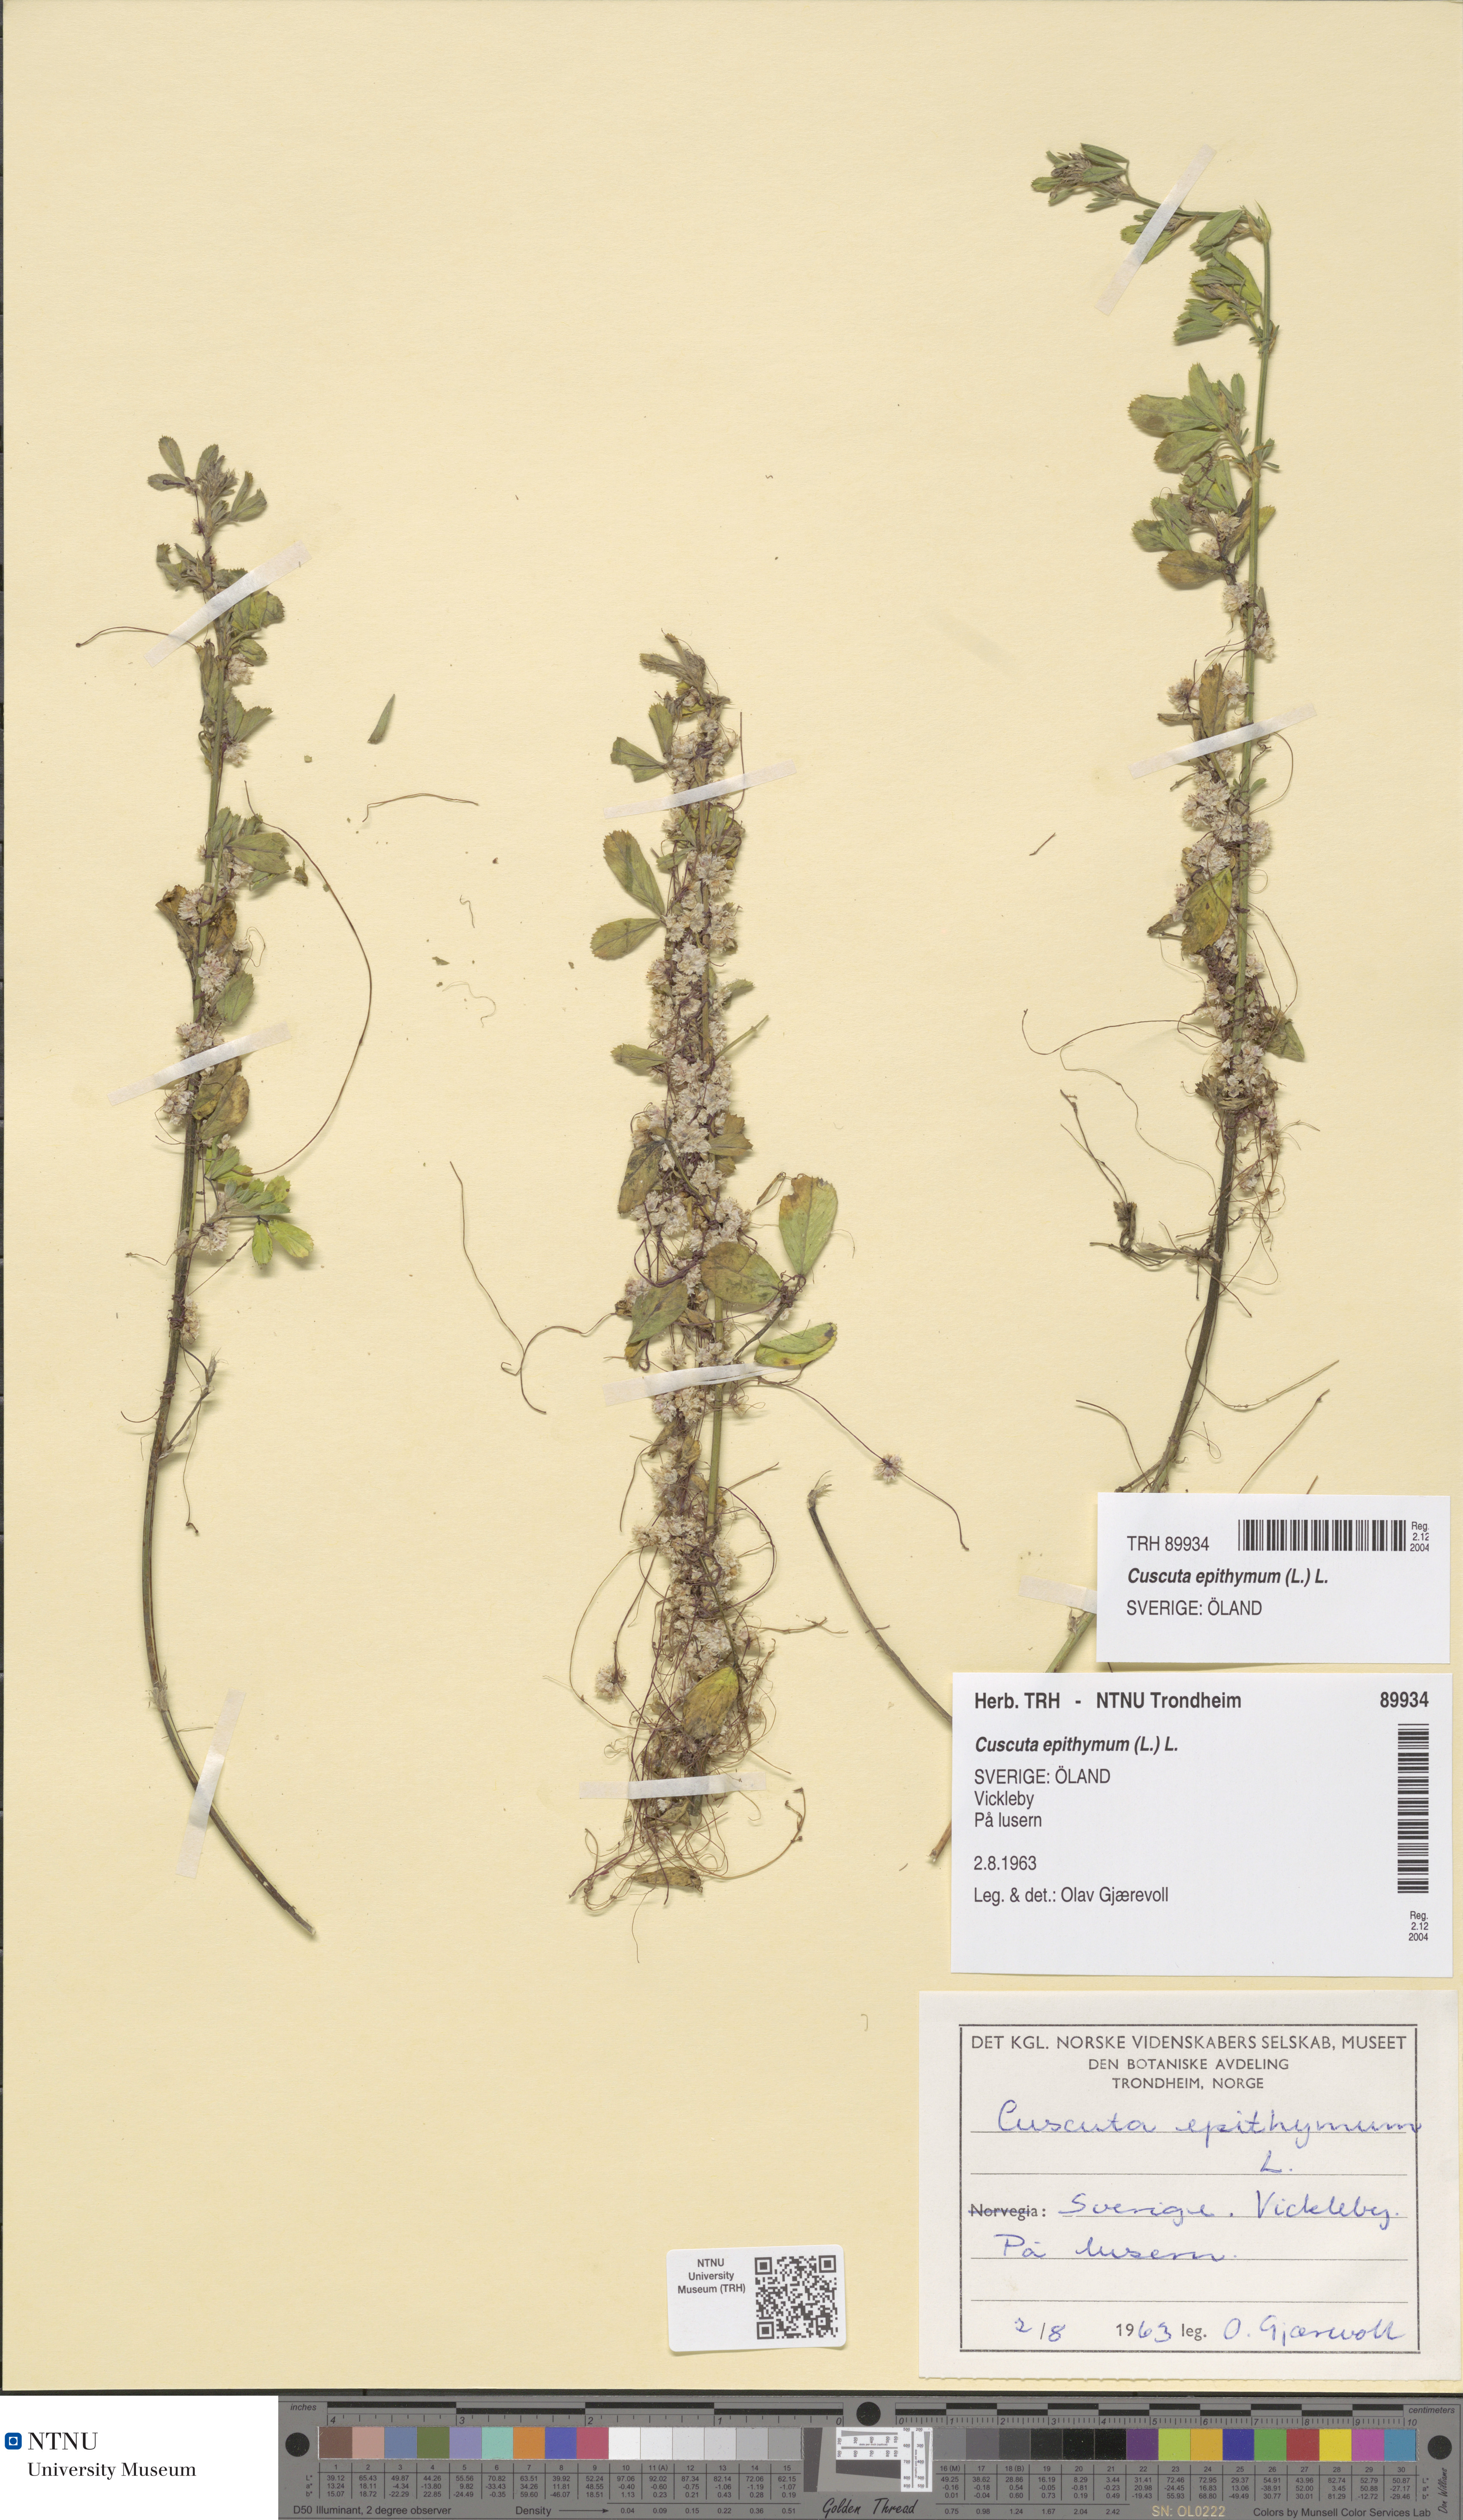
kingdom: Plantae
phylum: Tracheophyta
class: Magnoliopsida
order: Solanales
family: Convolvulaceae
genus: Cuscuta
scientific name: Cuscuta epithymum
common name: Clover dodder
